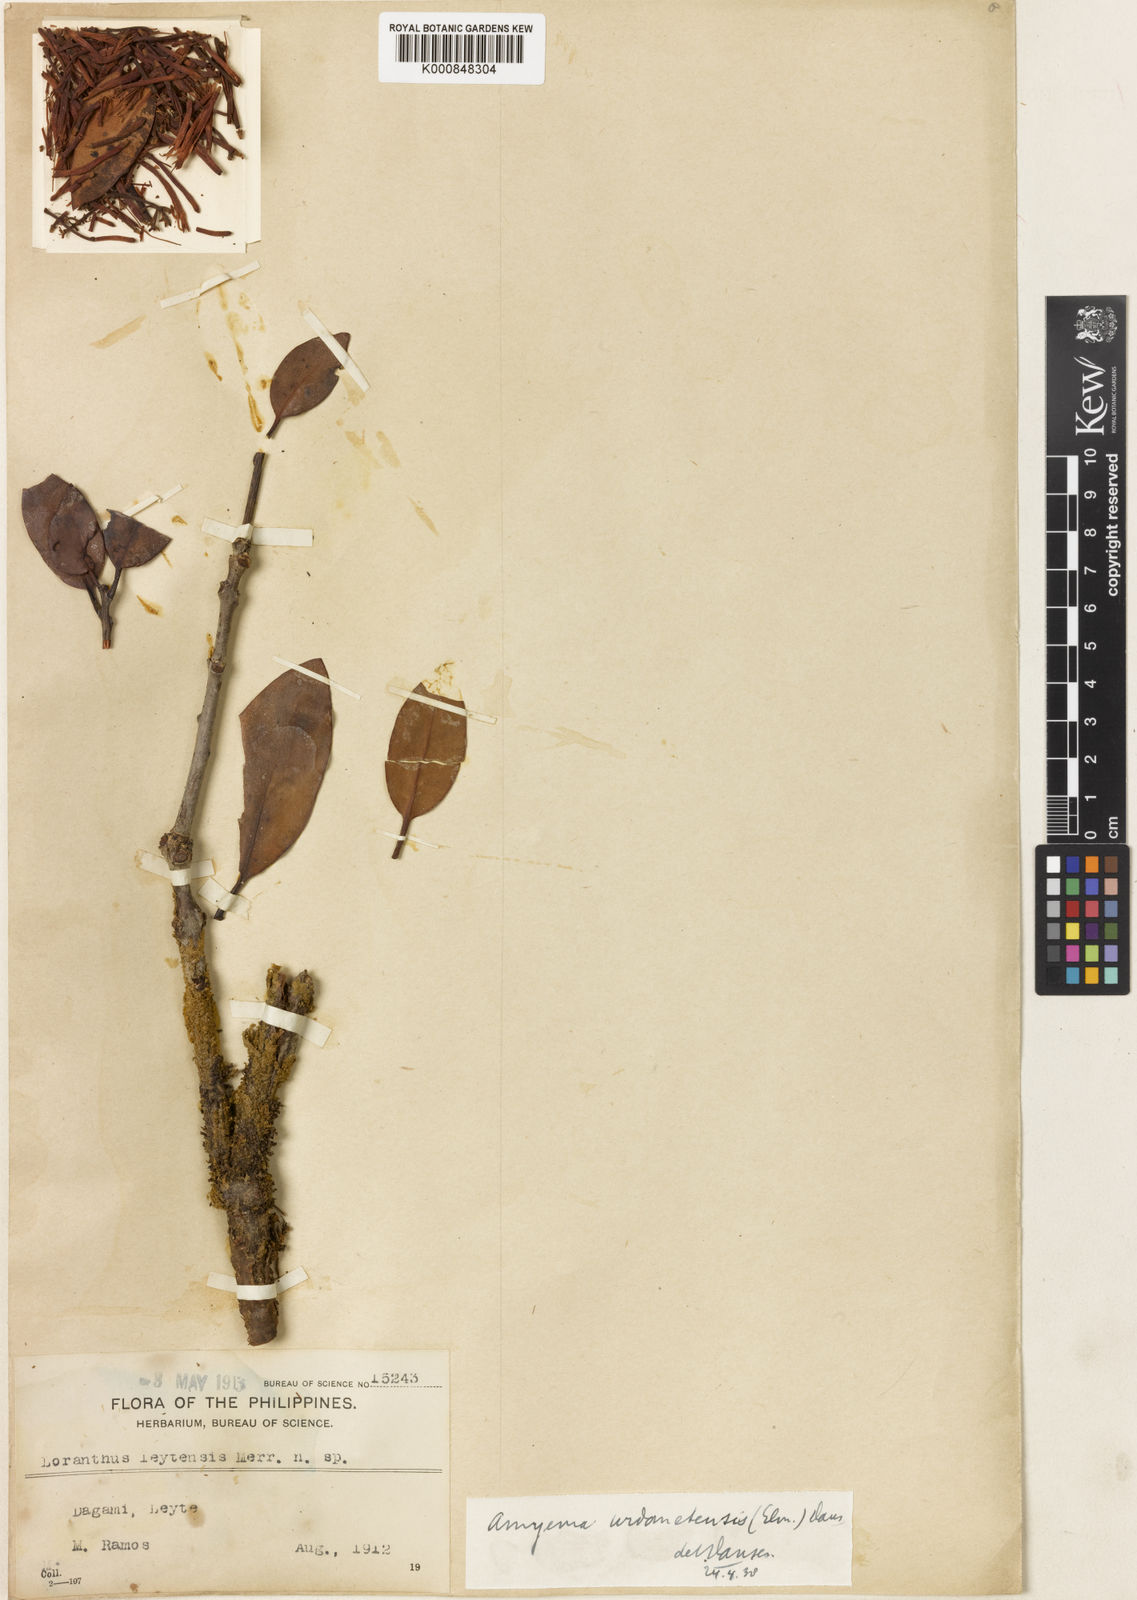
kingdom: Plantae
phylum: Tracheophyta
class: Magnoliopsida
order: Santalales
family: Loranthaceae
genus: Amyema
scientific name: Amyema urdanetensis
